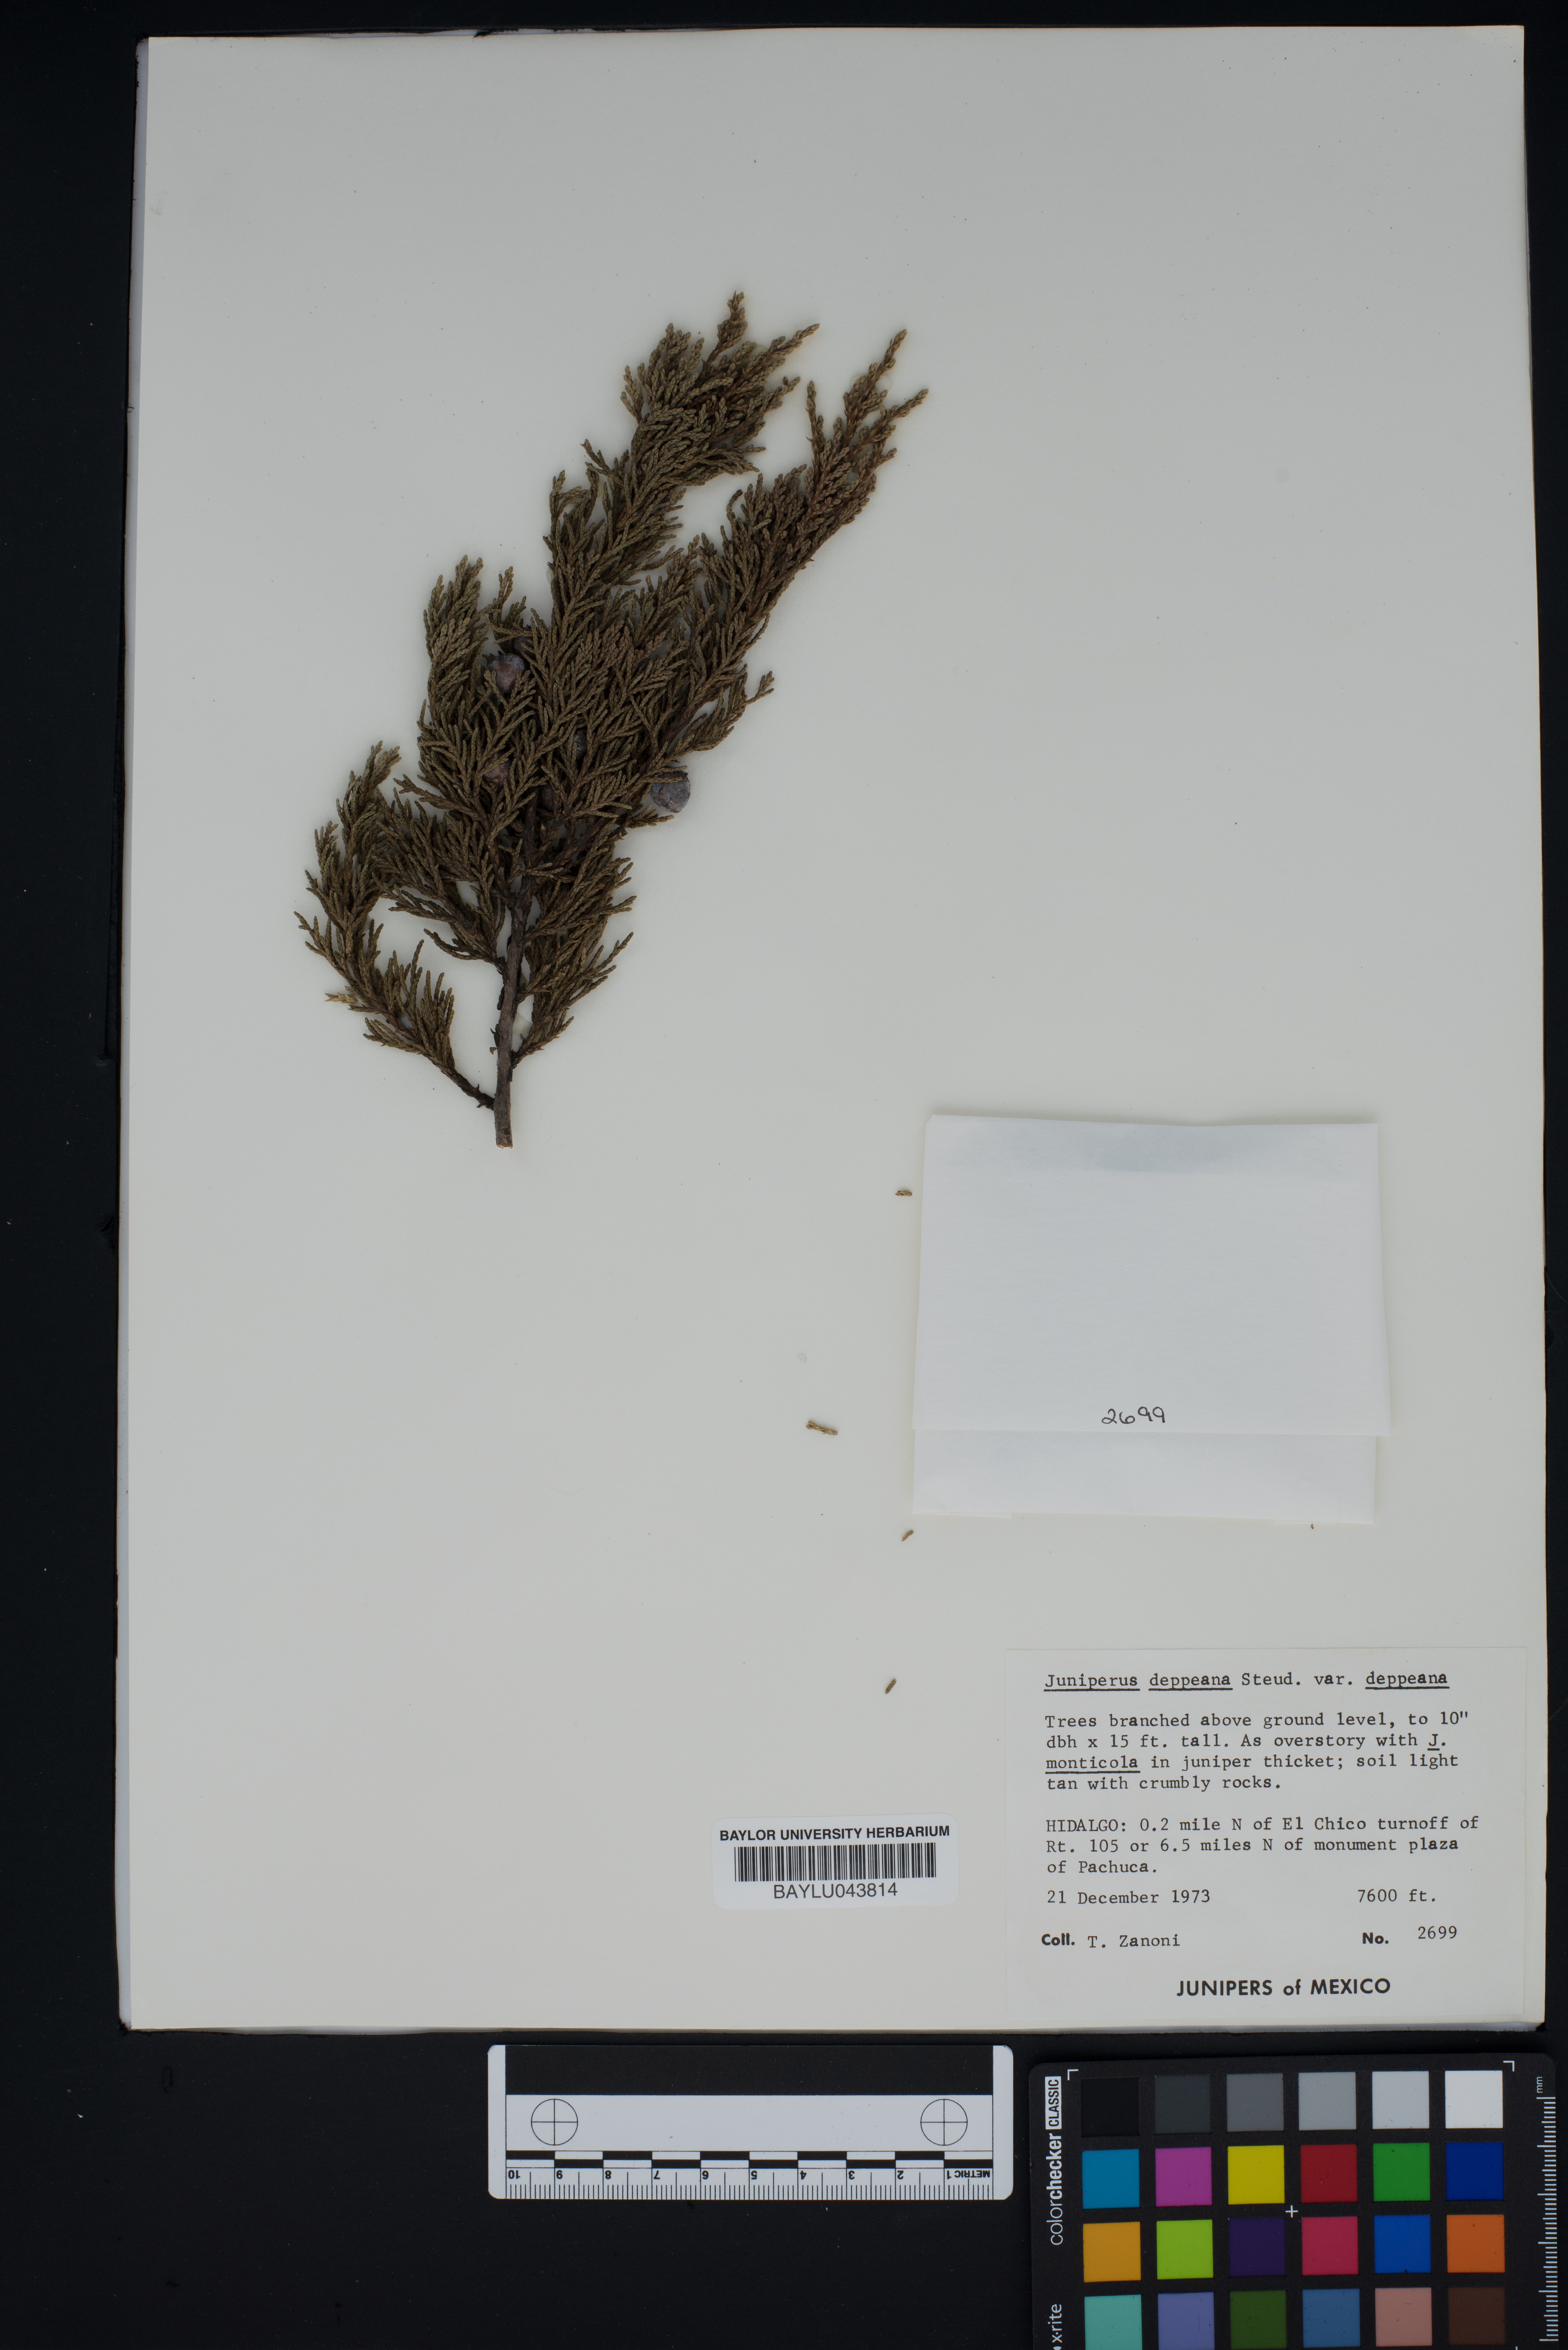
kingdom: Plantae
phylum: Tracheophyta
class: Pinopsida
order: Pinales
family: Cupressaceae
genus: Juniperus
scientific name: Juniperus deppeana
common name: Alligator juniper
